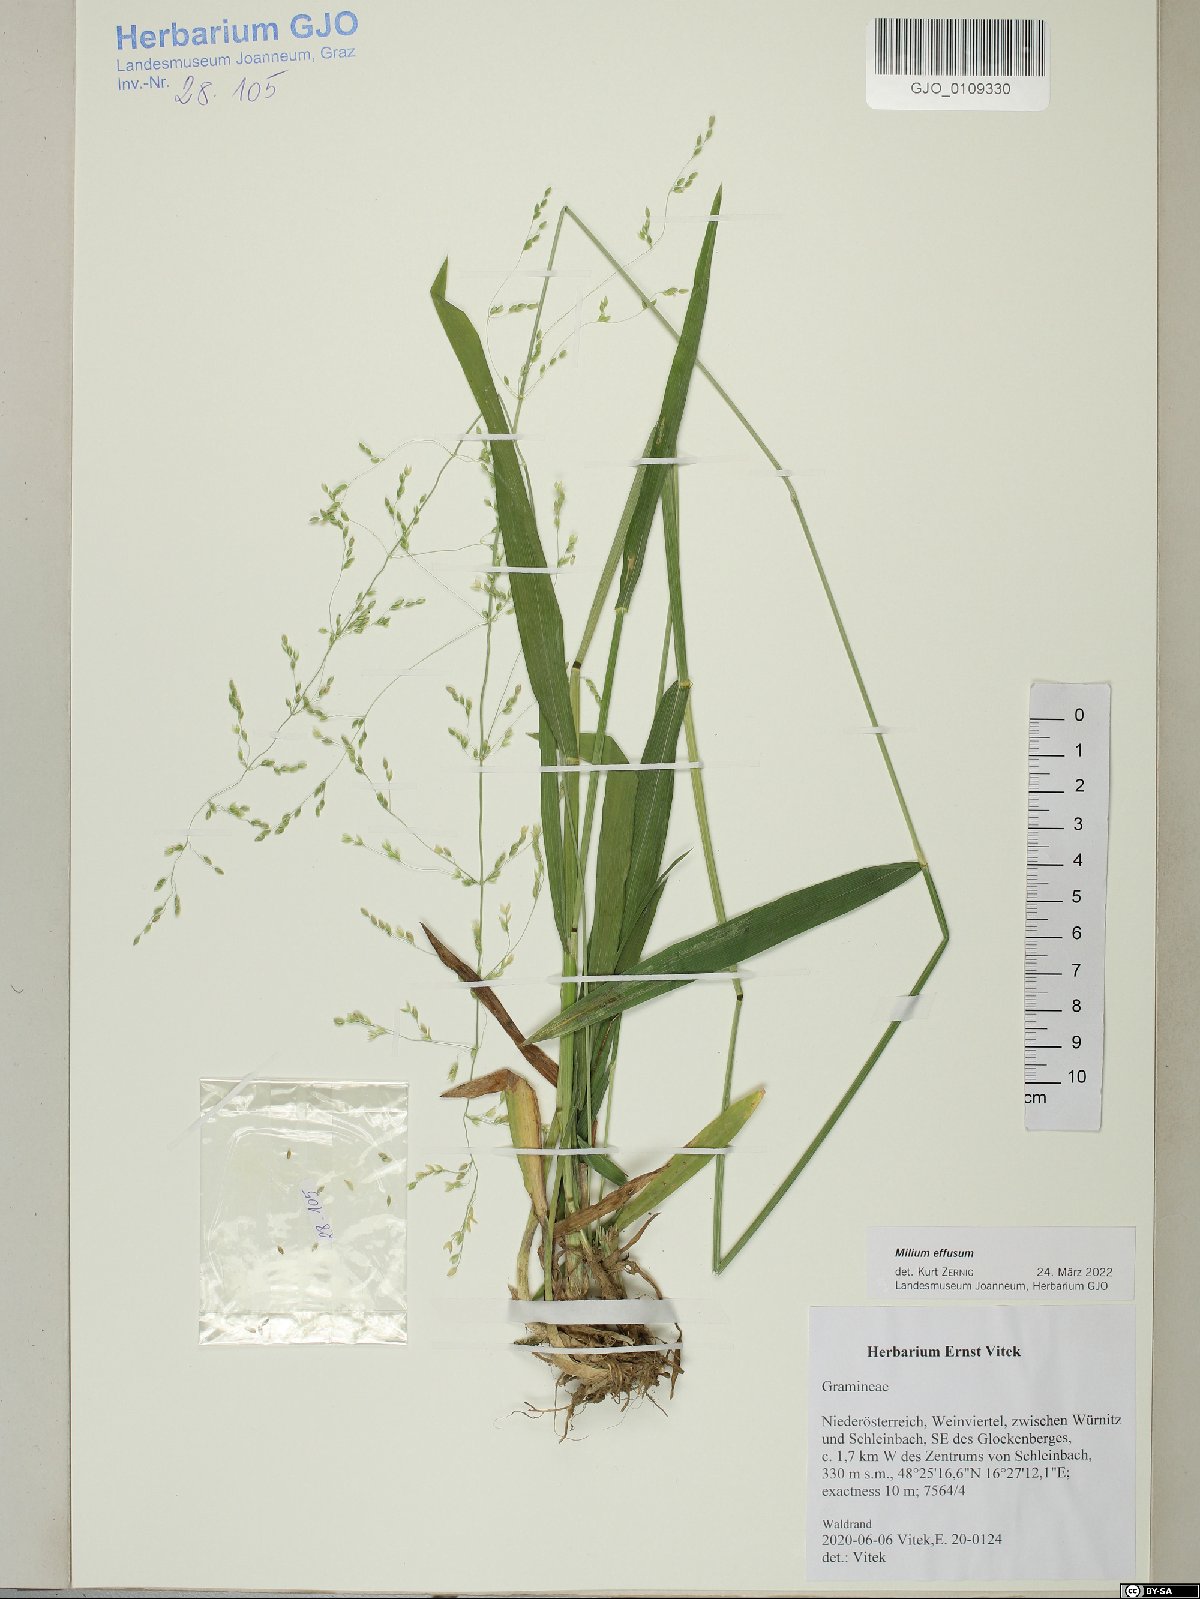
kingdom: Plantae
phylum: Tracheophyta
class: Liliopsida
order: Poales
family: Poaceae
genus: Milium
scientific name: Milium effusum
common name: Wood millet
